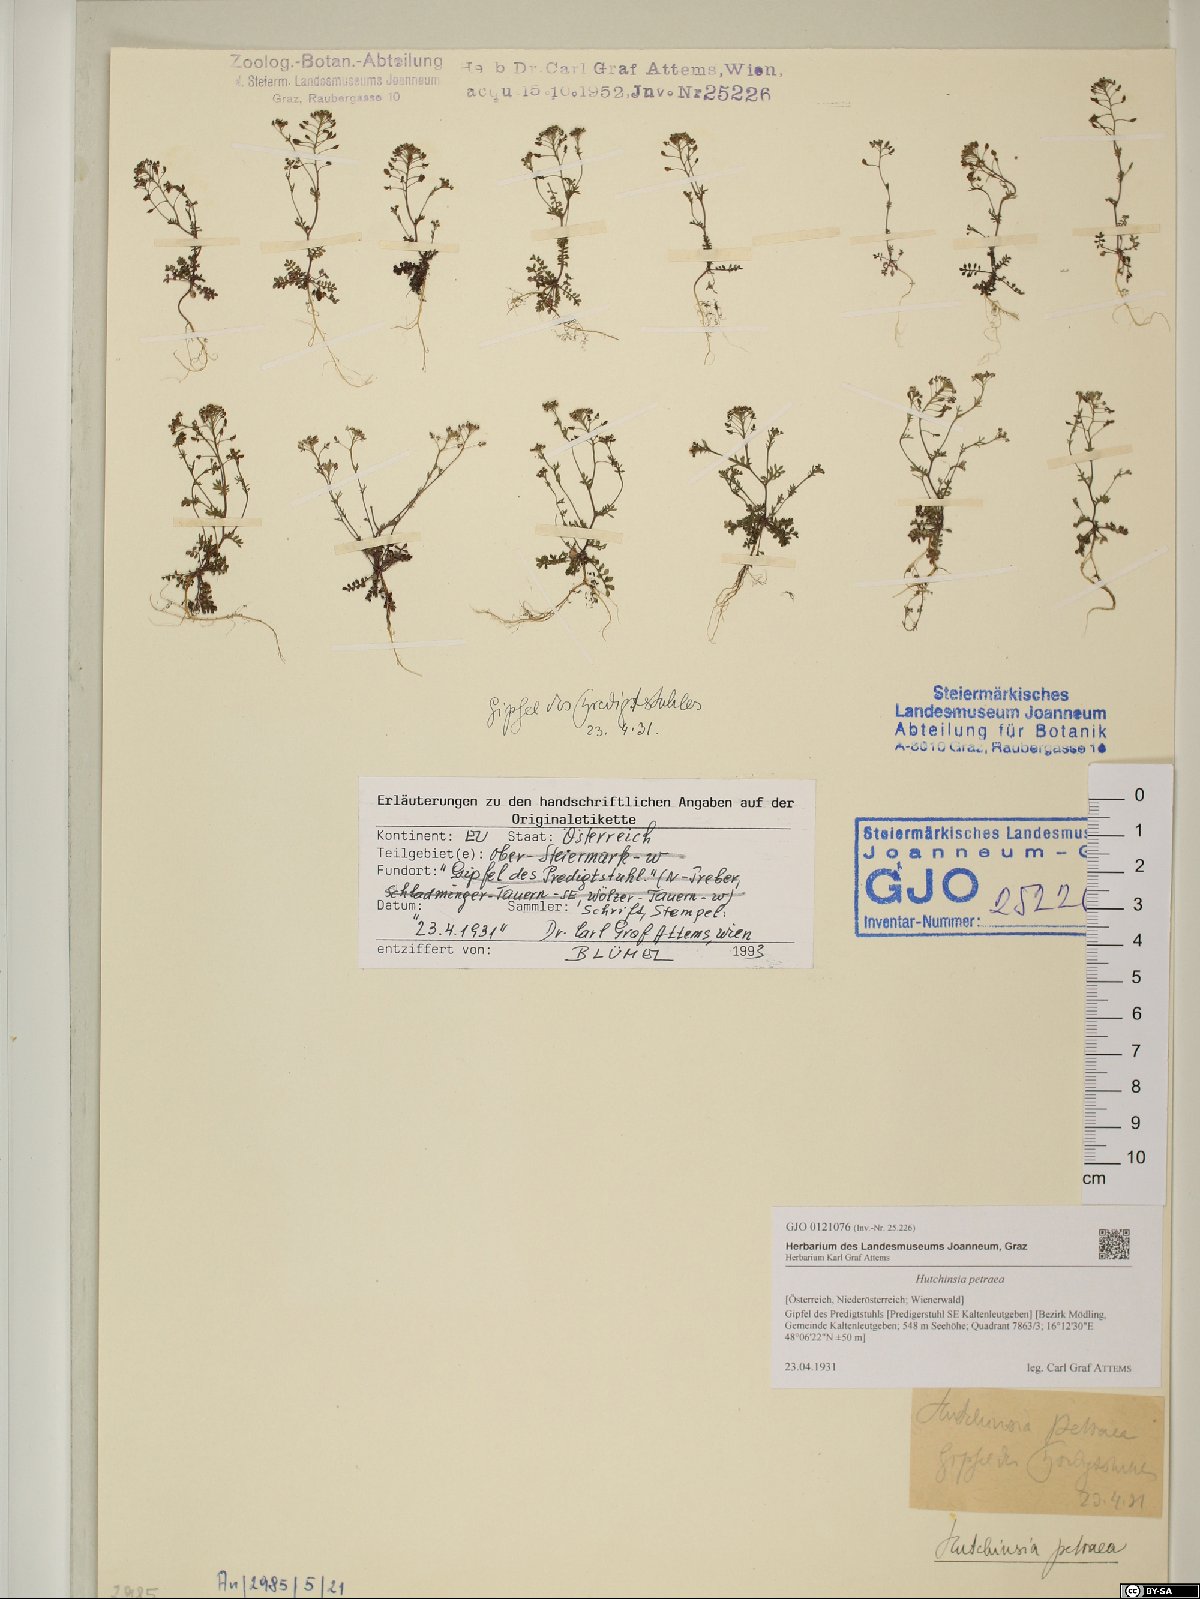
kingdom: Plantae
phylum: Tracheophyta
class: Magnoliopsida
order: Brassicales
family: Brassicaceae
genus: Hornungia
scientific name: Hornungia petraea
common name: Hutchinsia
